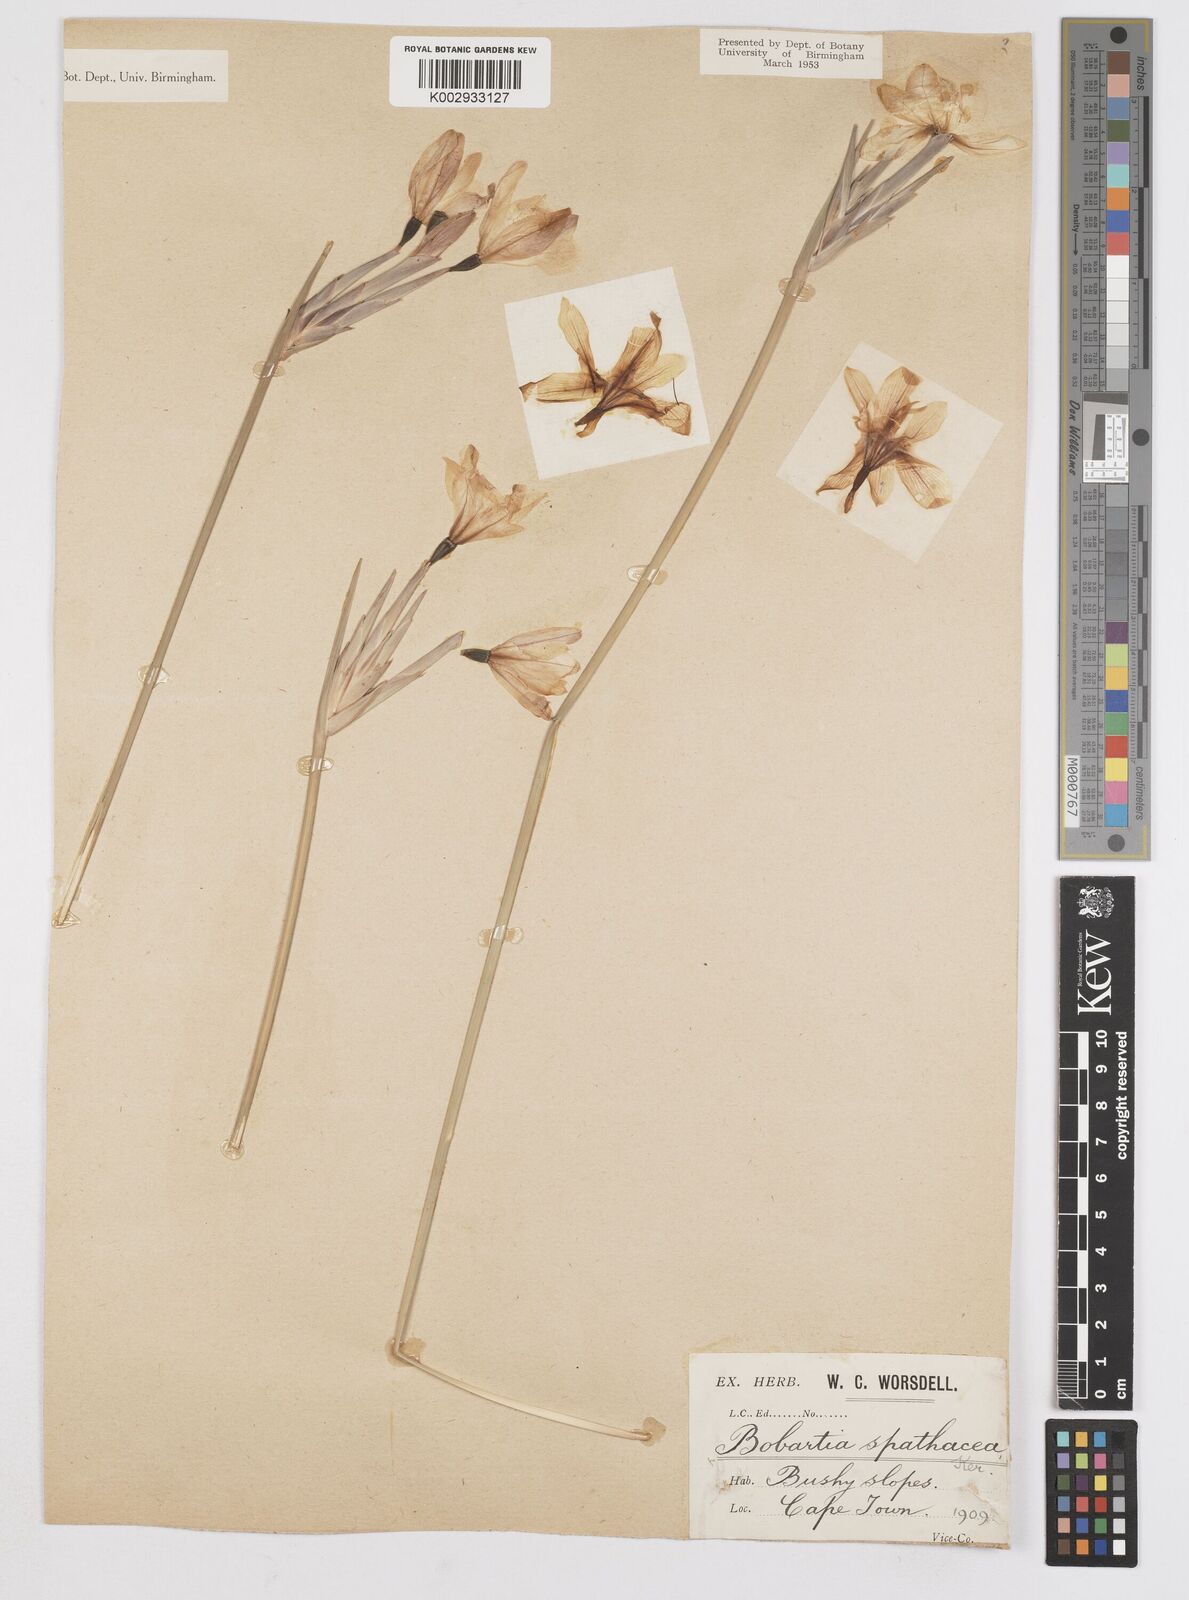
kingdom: Plantae
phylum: Tracheophyta
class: Liliopsida
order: Asparagales
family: Iridaceae
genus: Bobartia
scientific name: Bobartia indica
